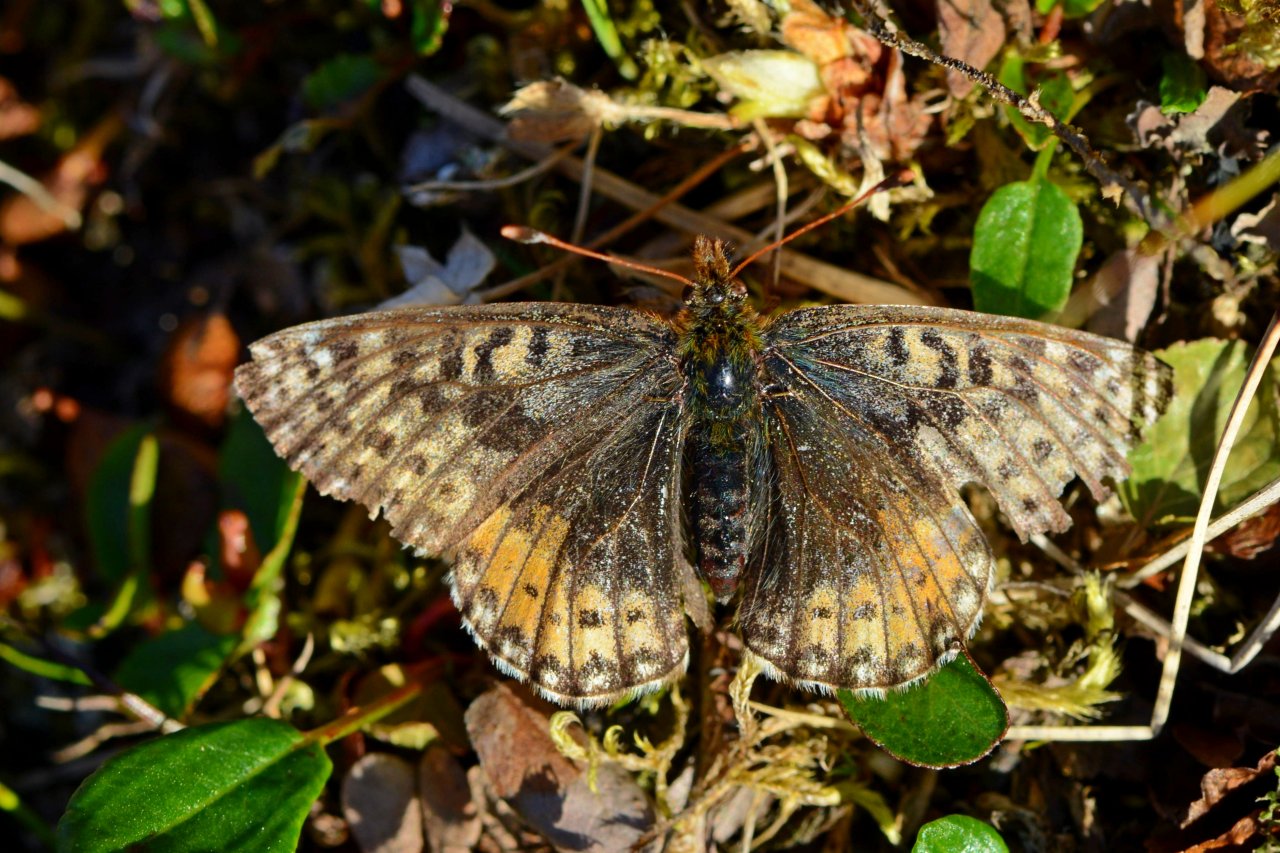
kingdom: Animalia
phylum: Arthropoda
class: Insecta
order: Lepidoptera
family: Nymphalidae
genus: Boloria
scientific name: Boloria chariclea
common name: Arctic Fritillary
